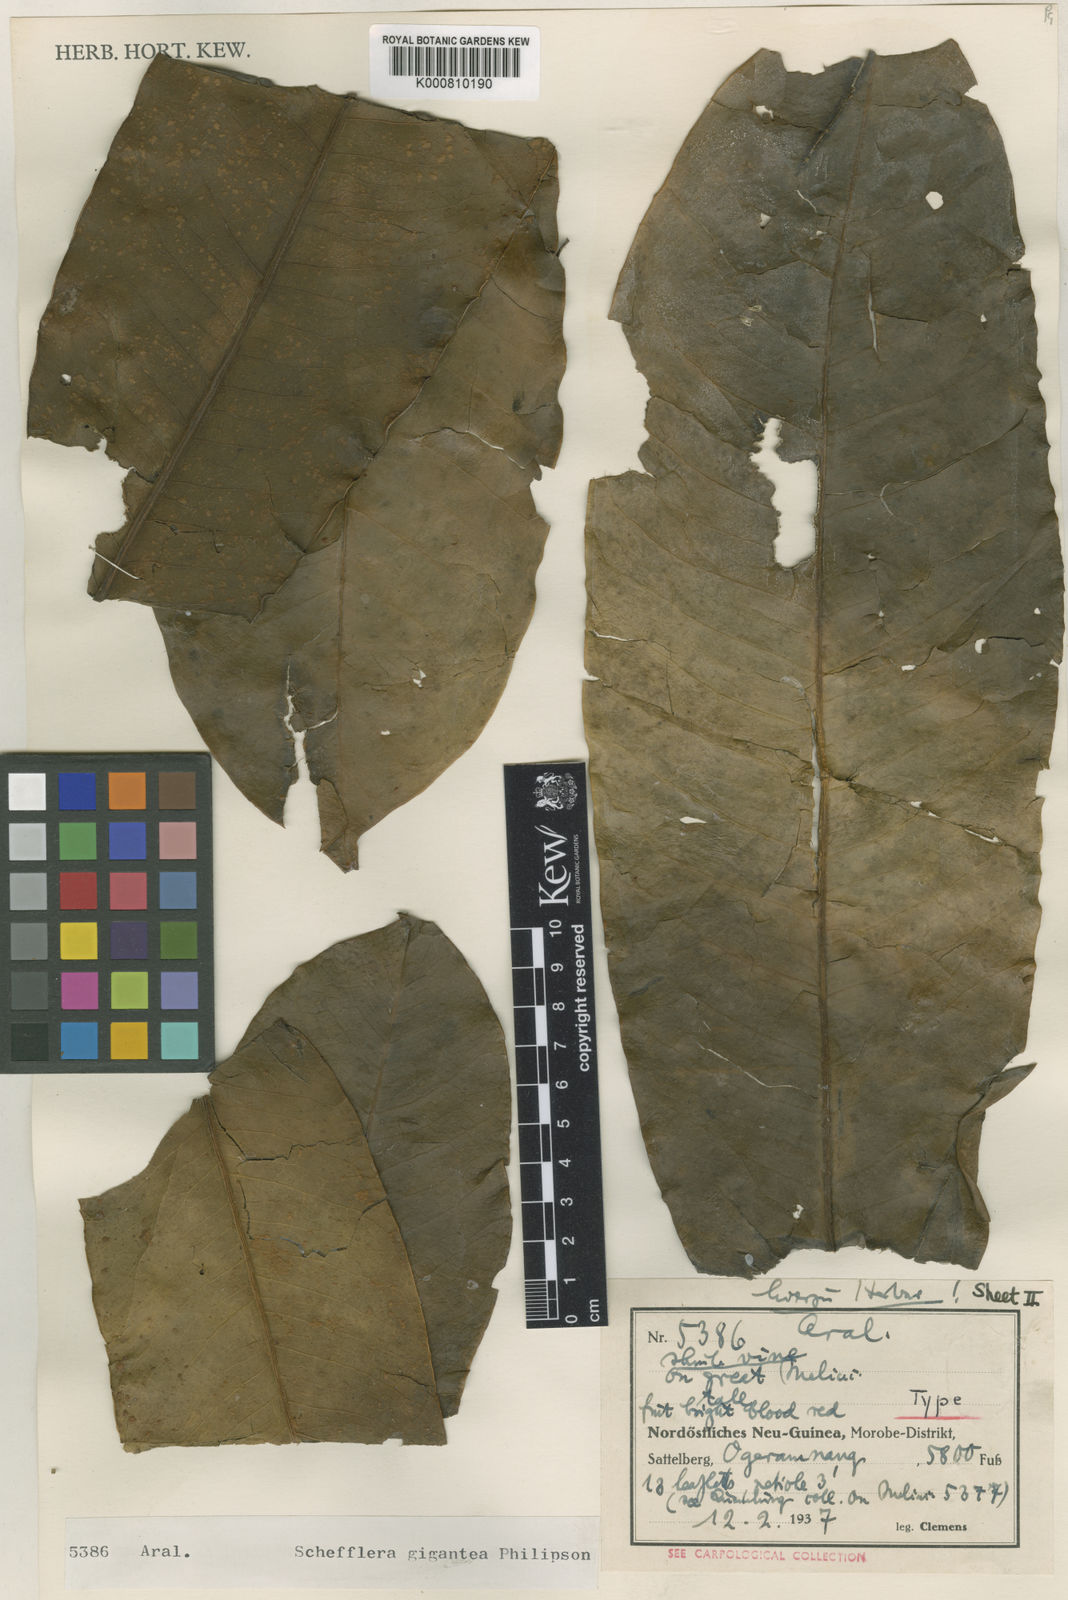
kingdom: Plantae
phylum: Tracheophyta
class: Magnoliopsida
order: Apiales
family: Araliaceae
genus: Heptapleurum
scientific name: Heptapleurum pachystylum
